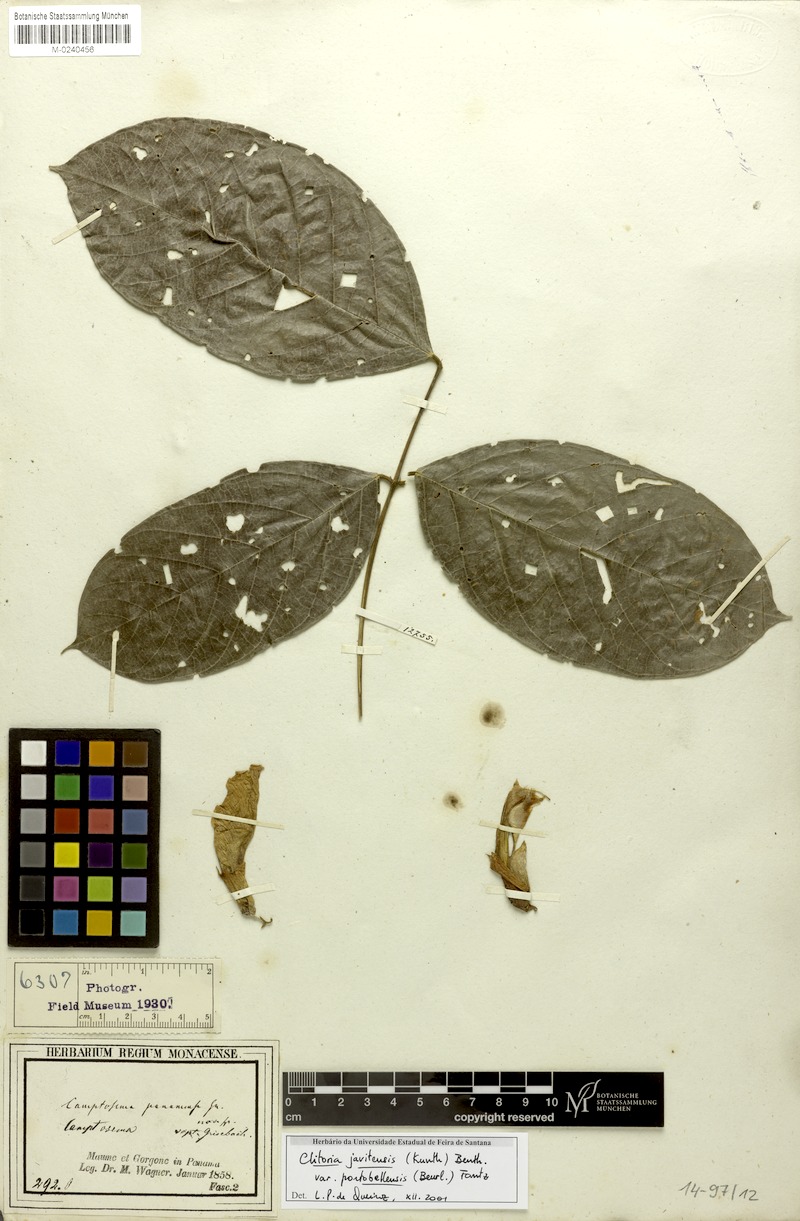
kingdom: Plantae
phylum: Tracheophyta
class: Magnoliopsida
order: Fabales
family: Fabaceae
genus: Clitoria
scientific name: Clitoria javitensis
